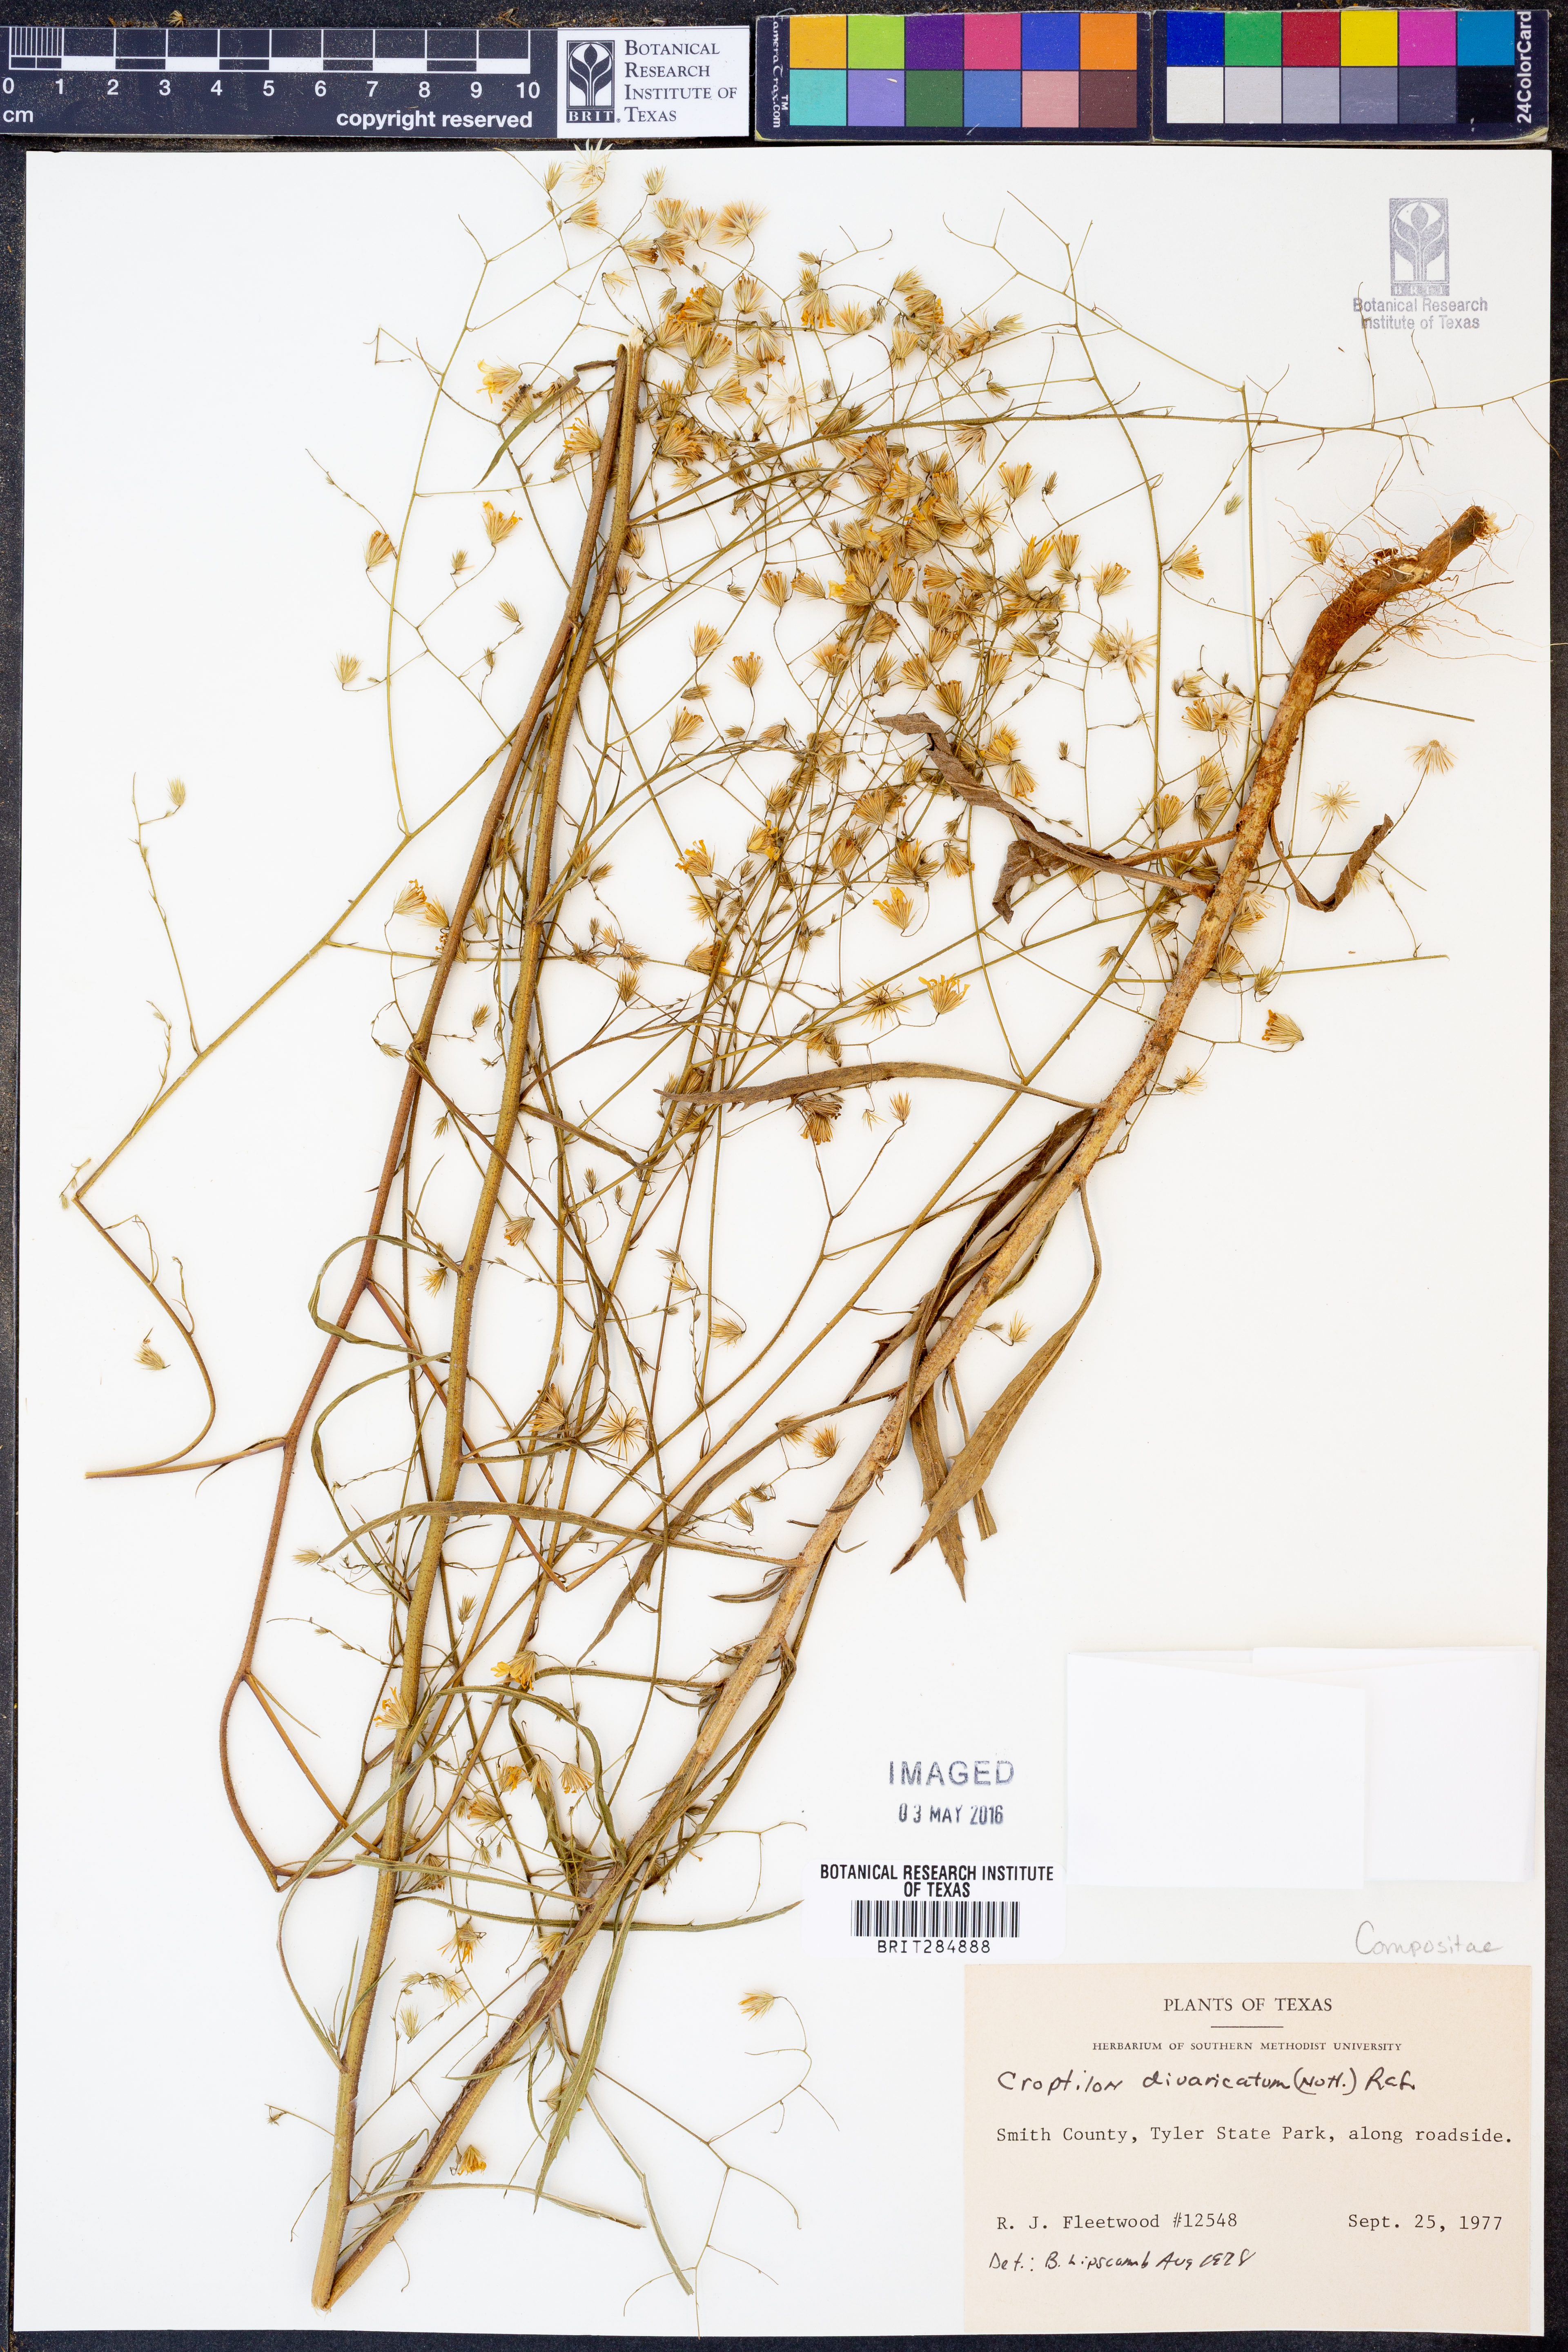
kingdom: Plantae
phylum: Tracheophyta
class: Magnoliopsida
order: Asterales
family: Asteraceae
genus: Croptilon
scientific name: Croptilon divaricatum
